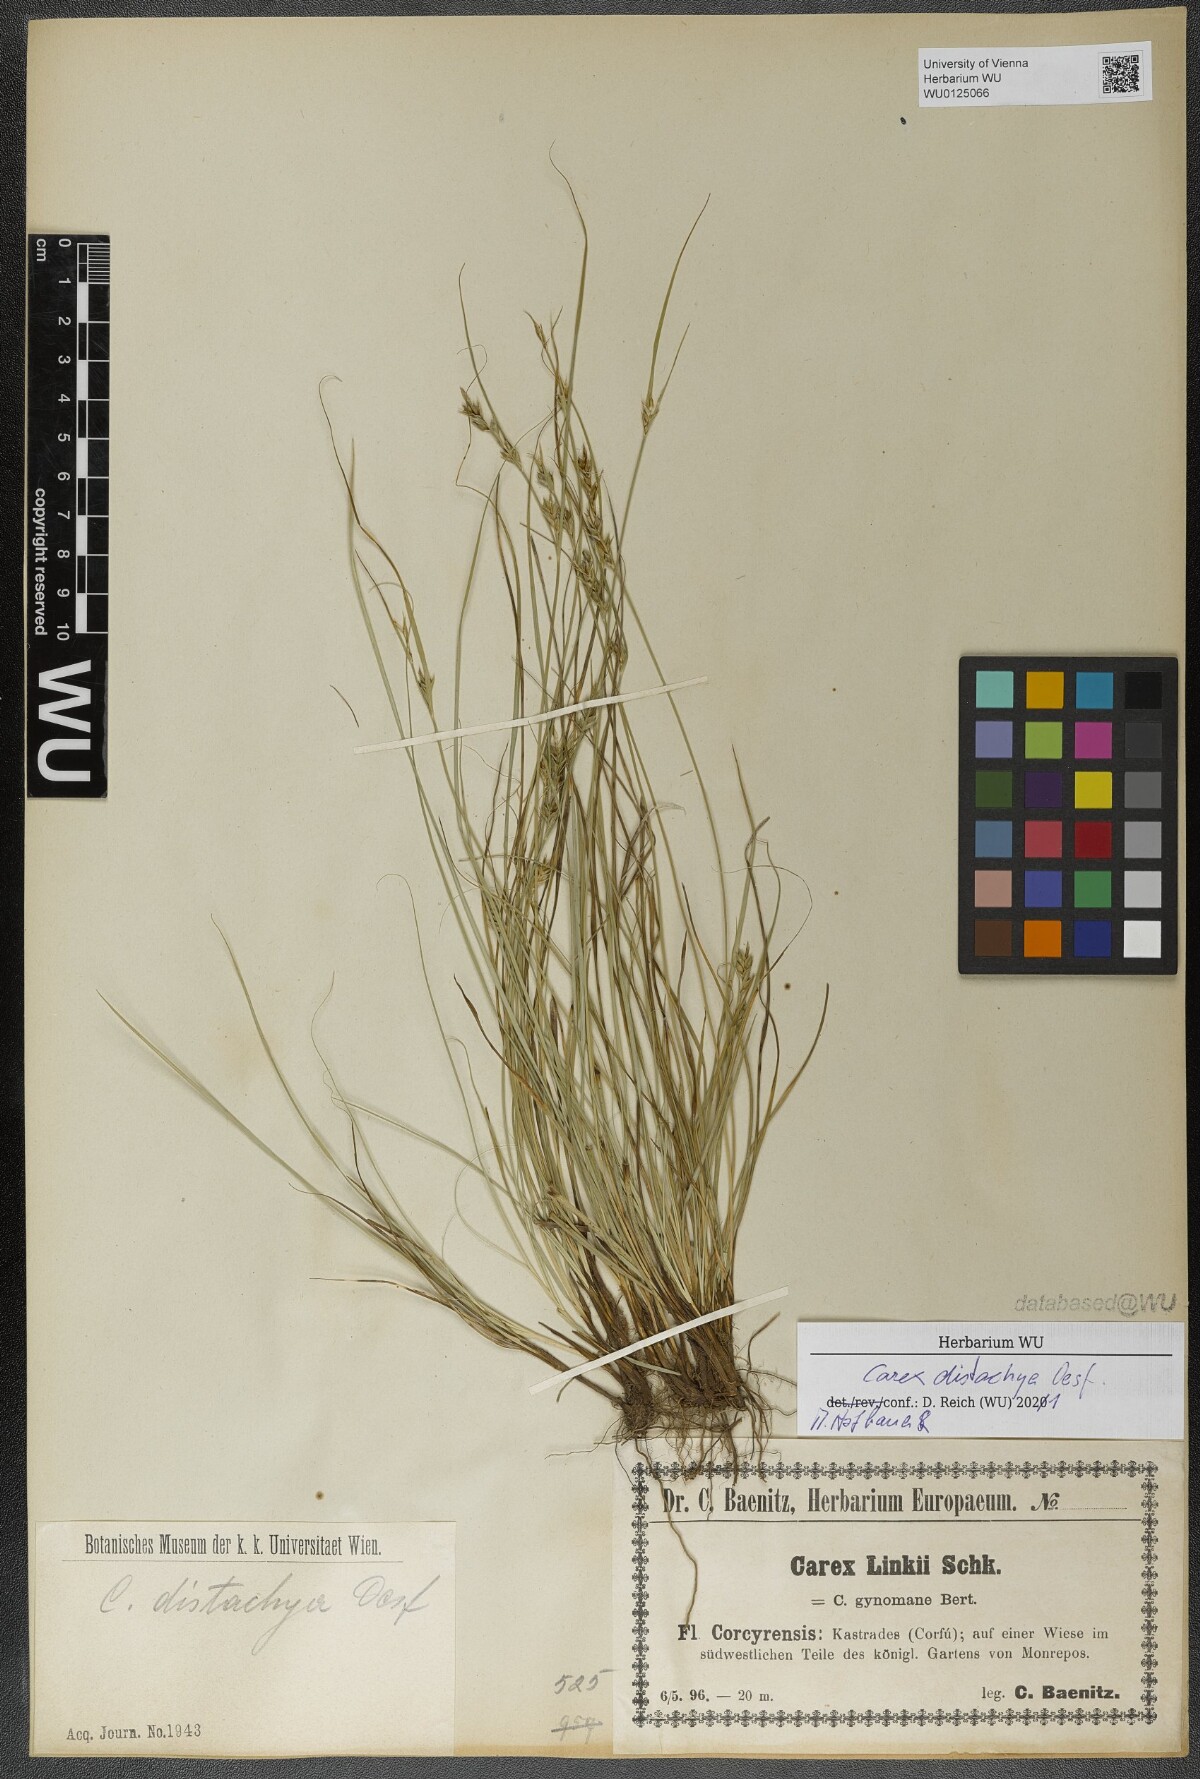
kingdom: Plantae
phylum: Tracheophyta
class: Liliopsida
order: Poales
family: Cyperaceae
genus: Carex
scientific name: Carex distachya
